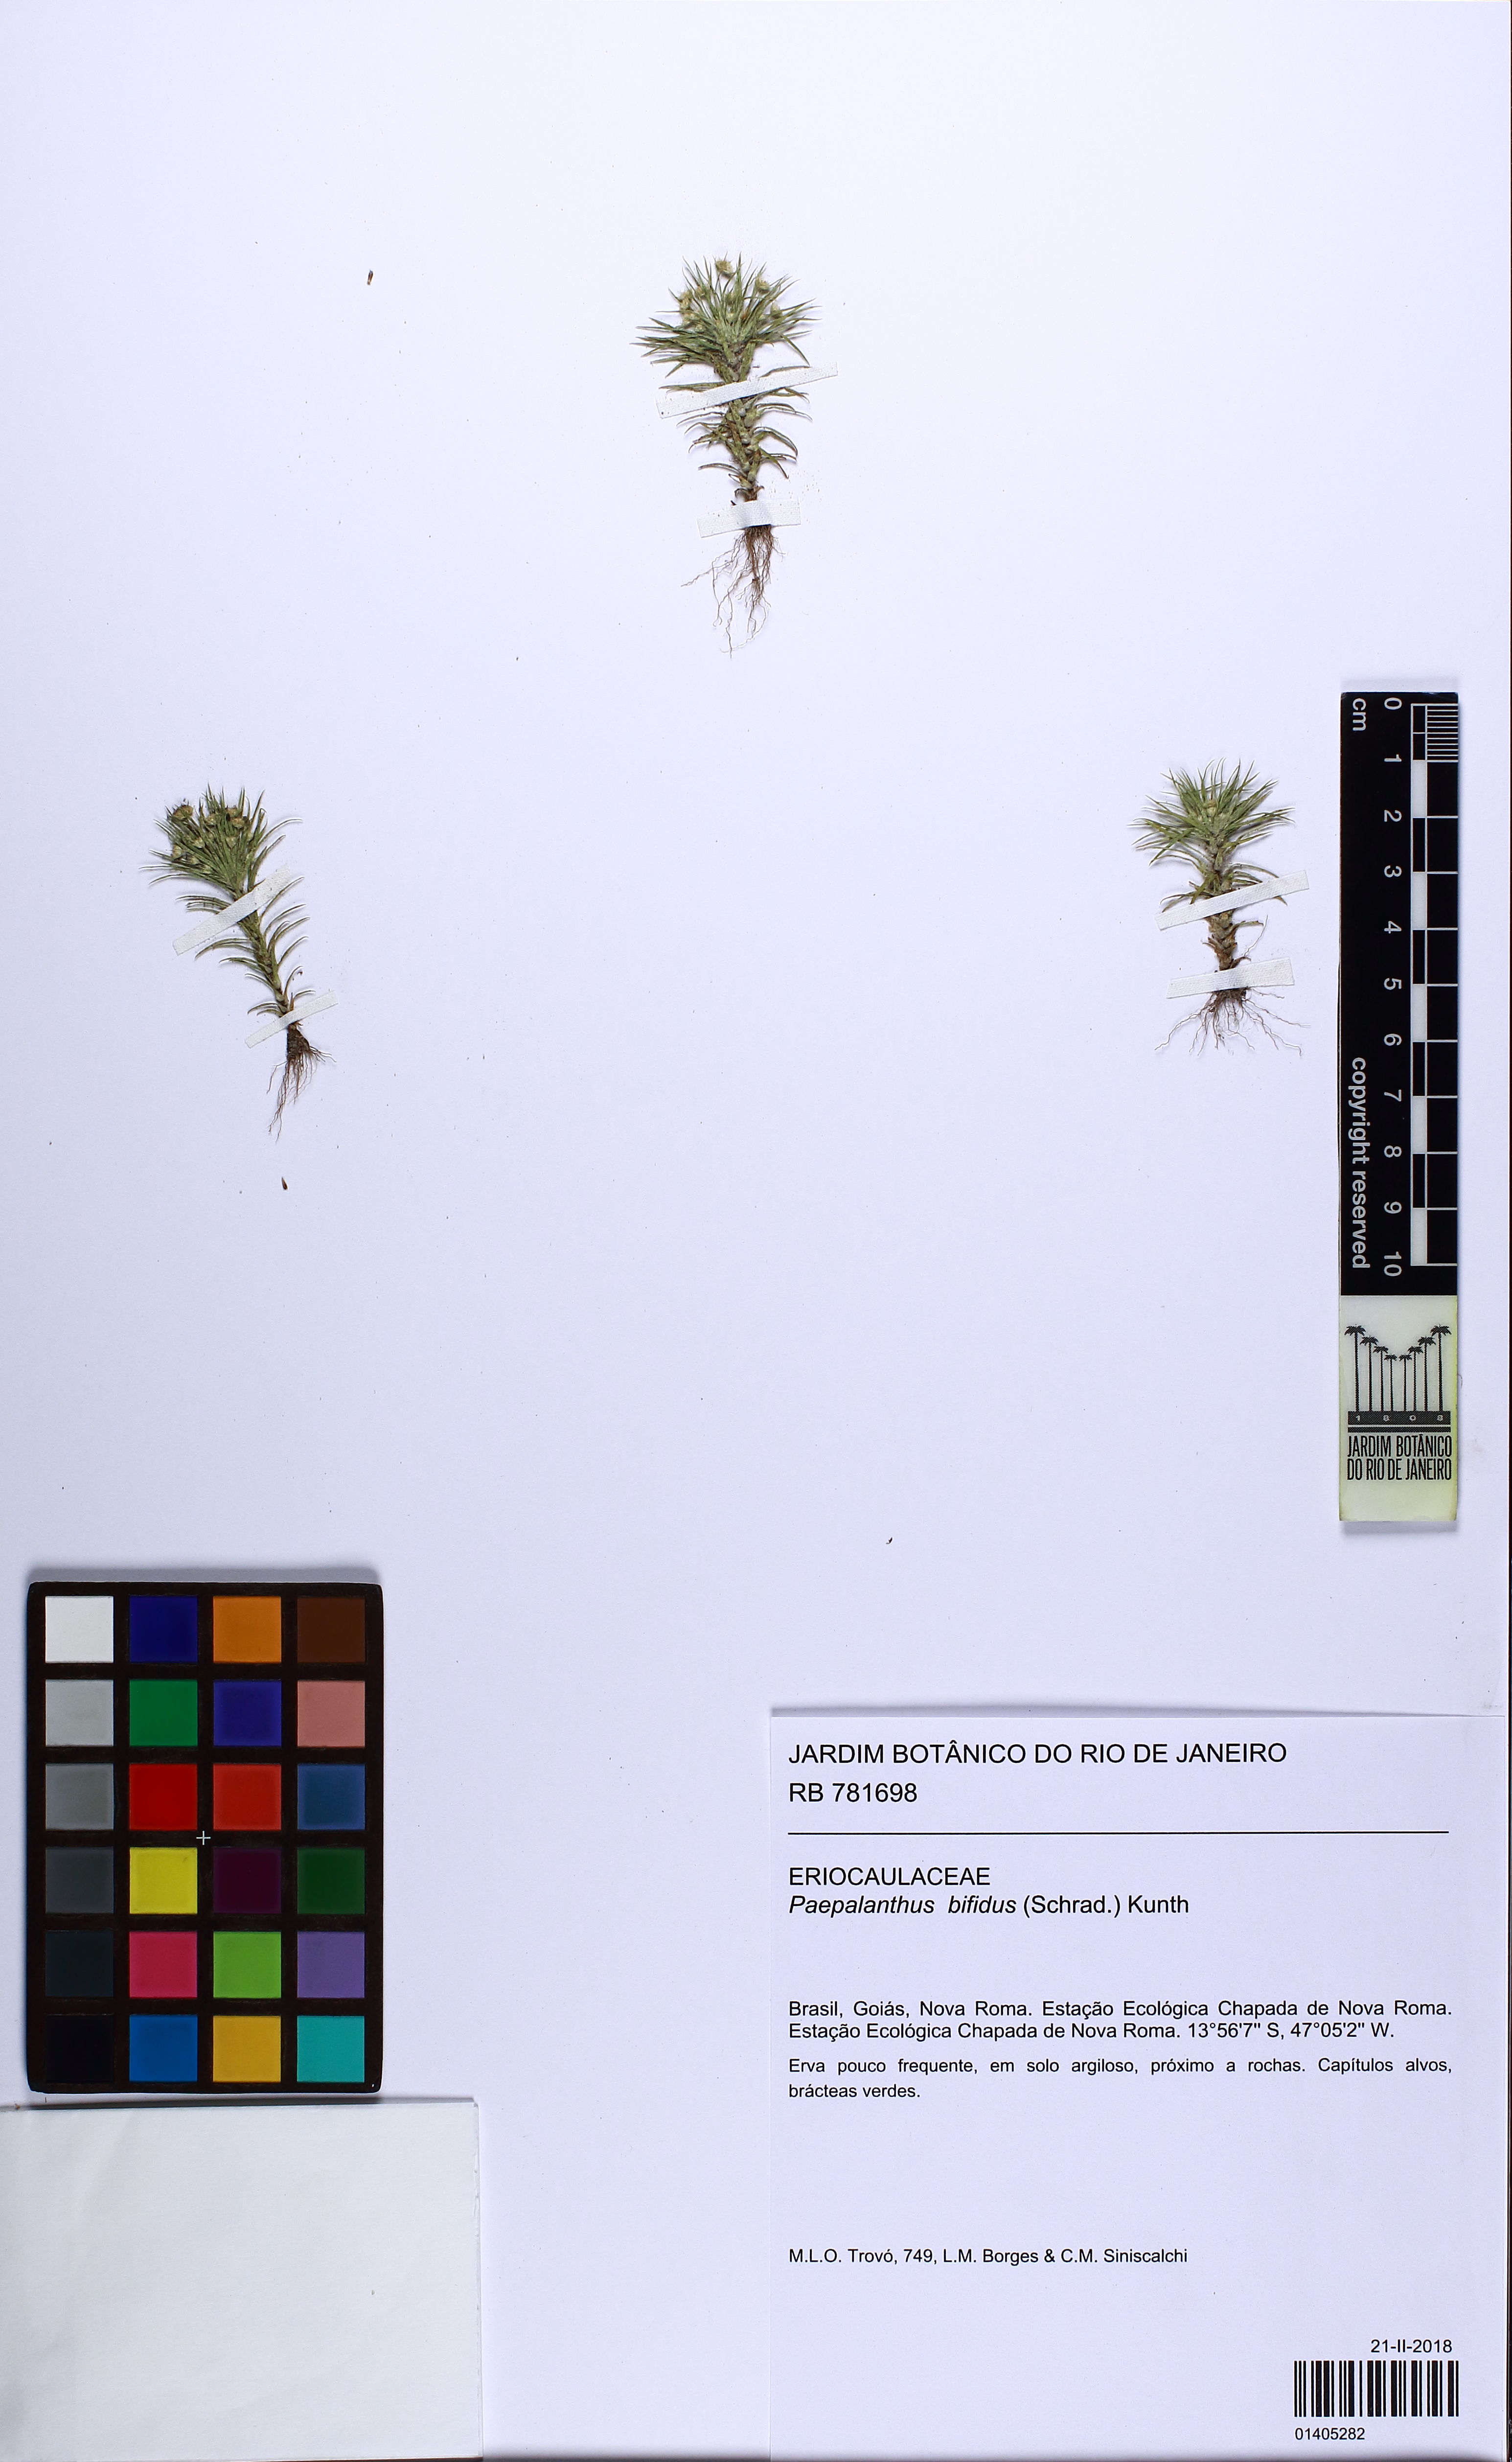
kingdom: Plantae
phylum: Tracheophyta
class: Liliopsida
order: Poales
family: Eriocaulaceae
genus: Paepalanthus
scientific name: Paepalanthus bifidus
